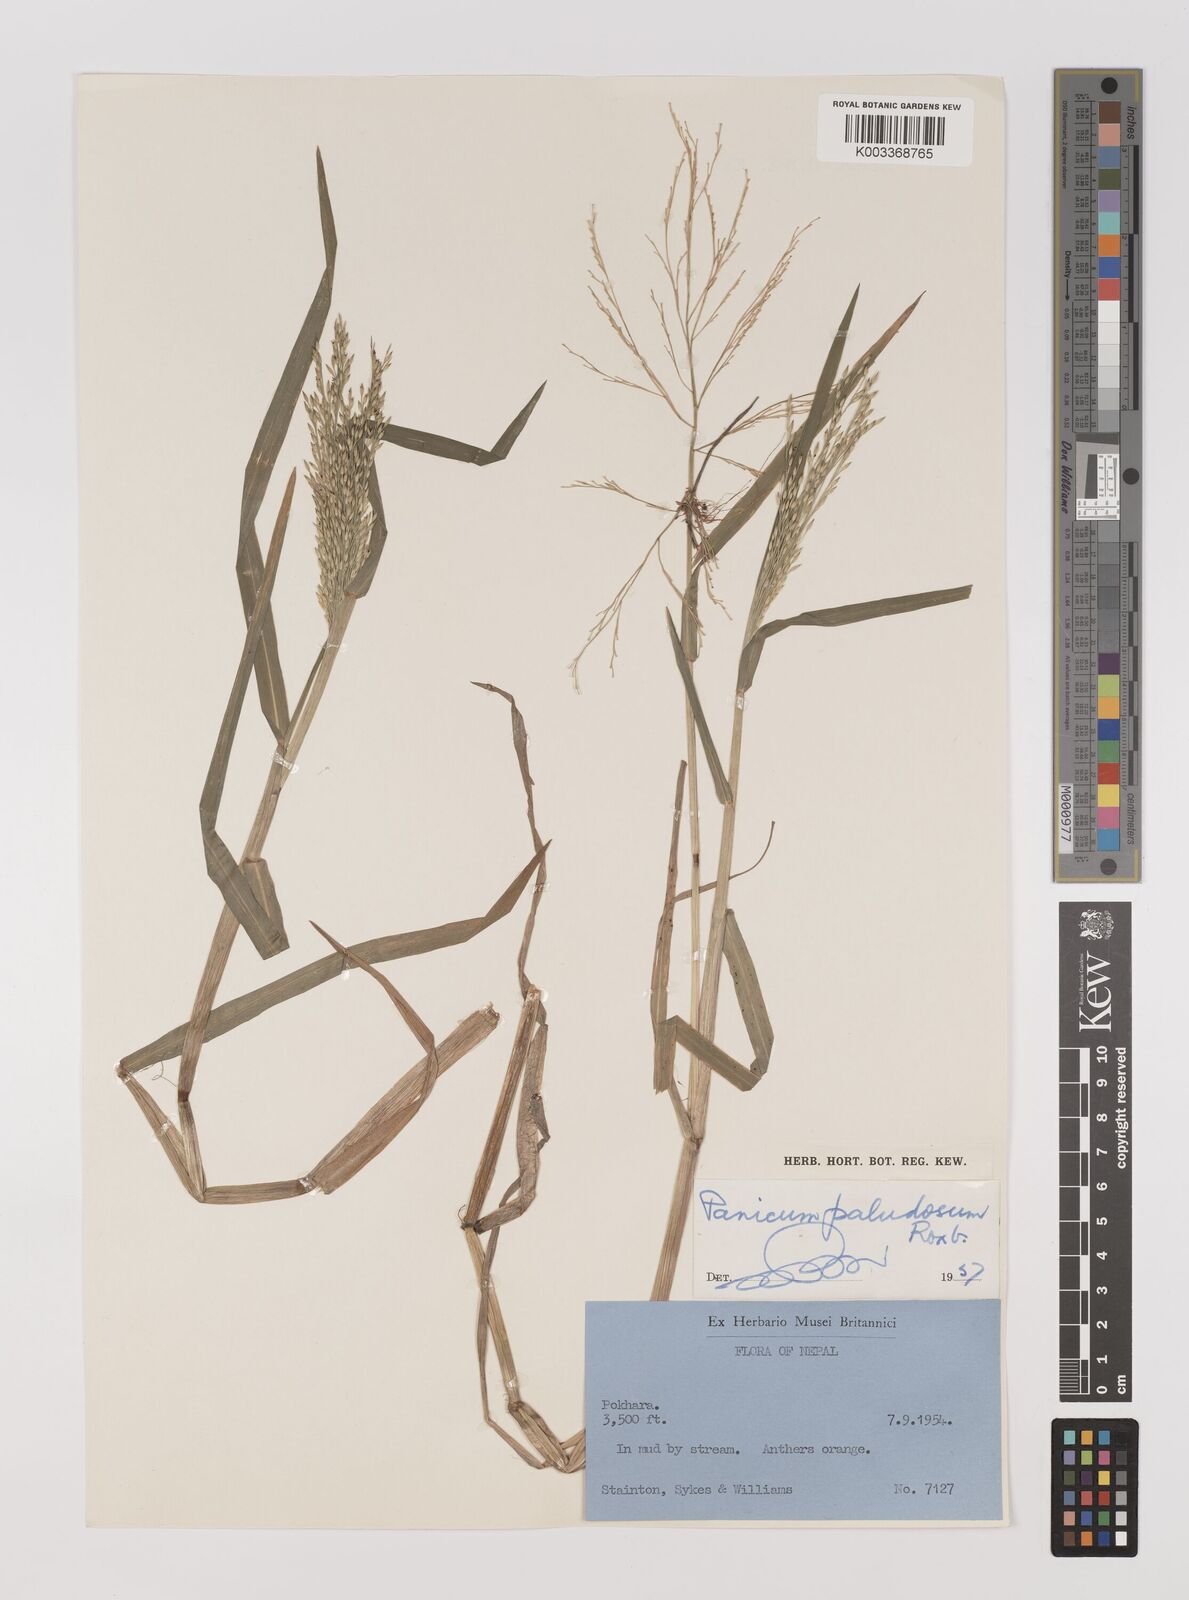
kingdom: Plantae
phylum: Tracheophyta
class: Liliopsida
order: Poales
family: Poaceae
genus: Louisiella
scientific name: Louisiella paludosa
